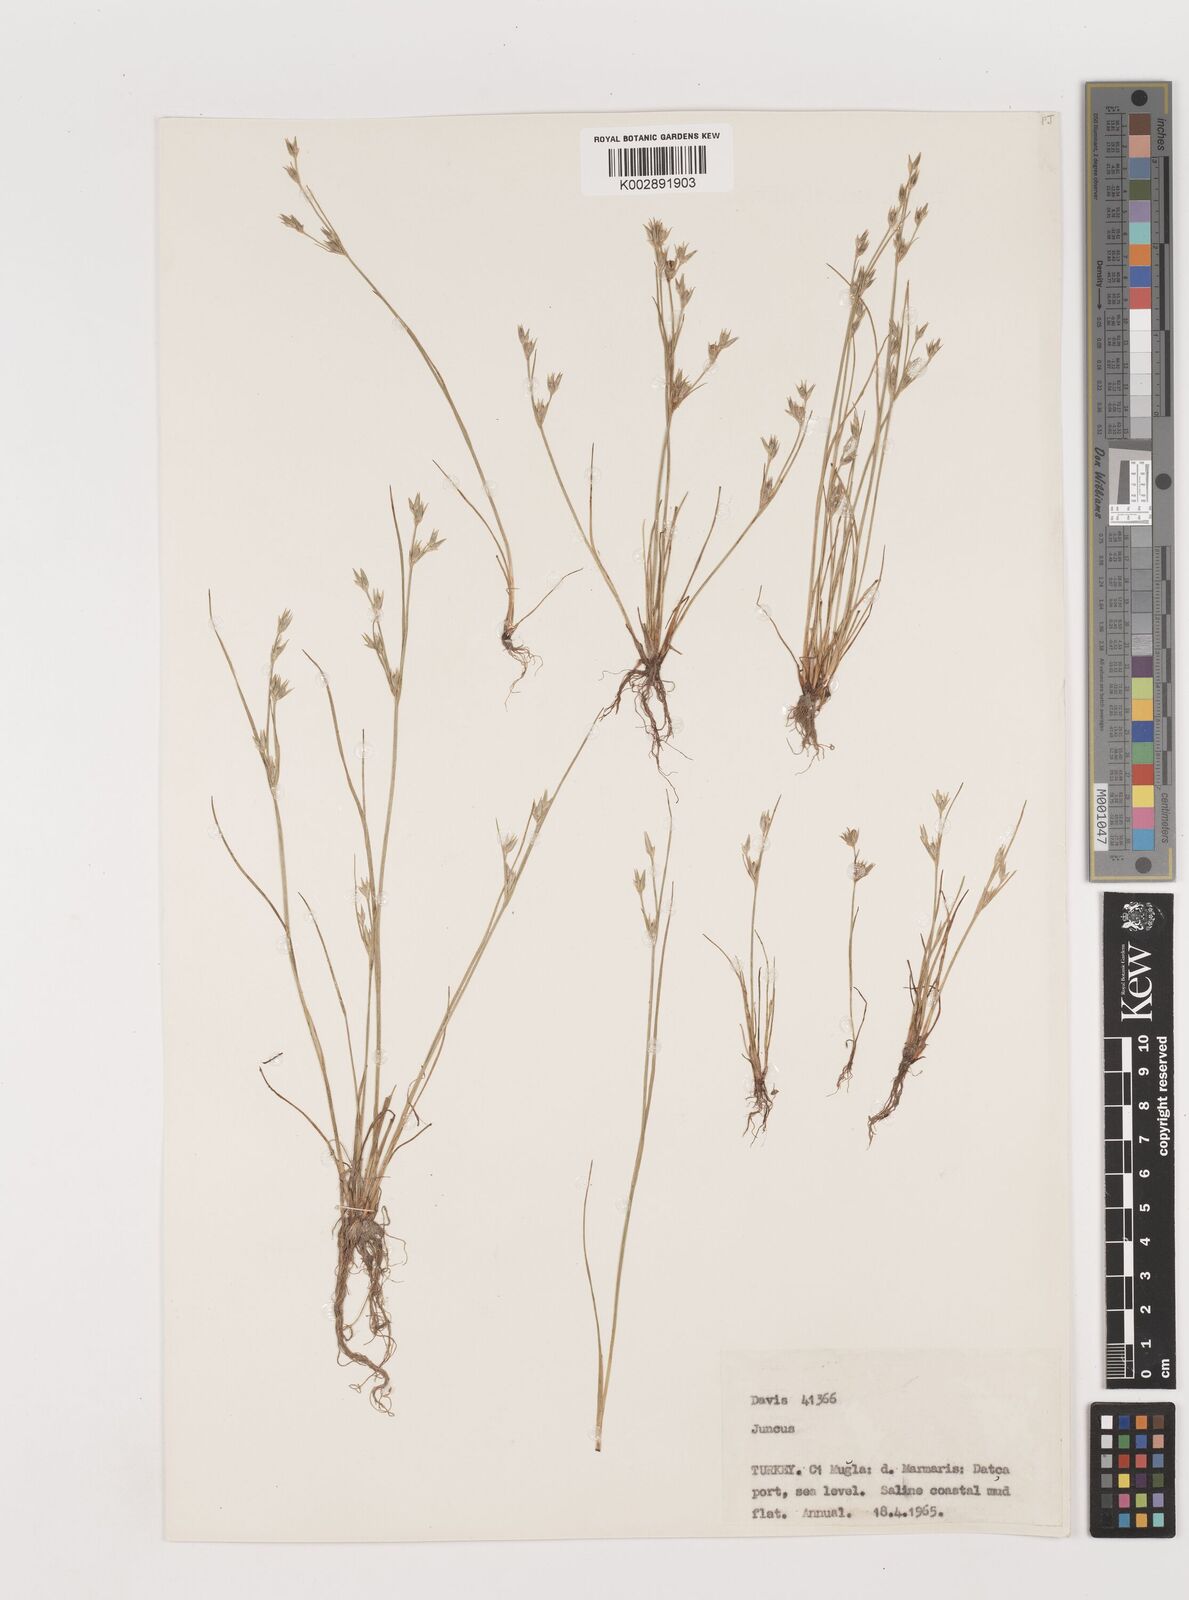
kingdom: Plantae
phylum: Tracheophyta
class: Liliopsida
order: Poales
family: Juncaceae
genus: Juncus
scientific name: Juncus
